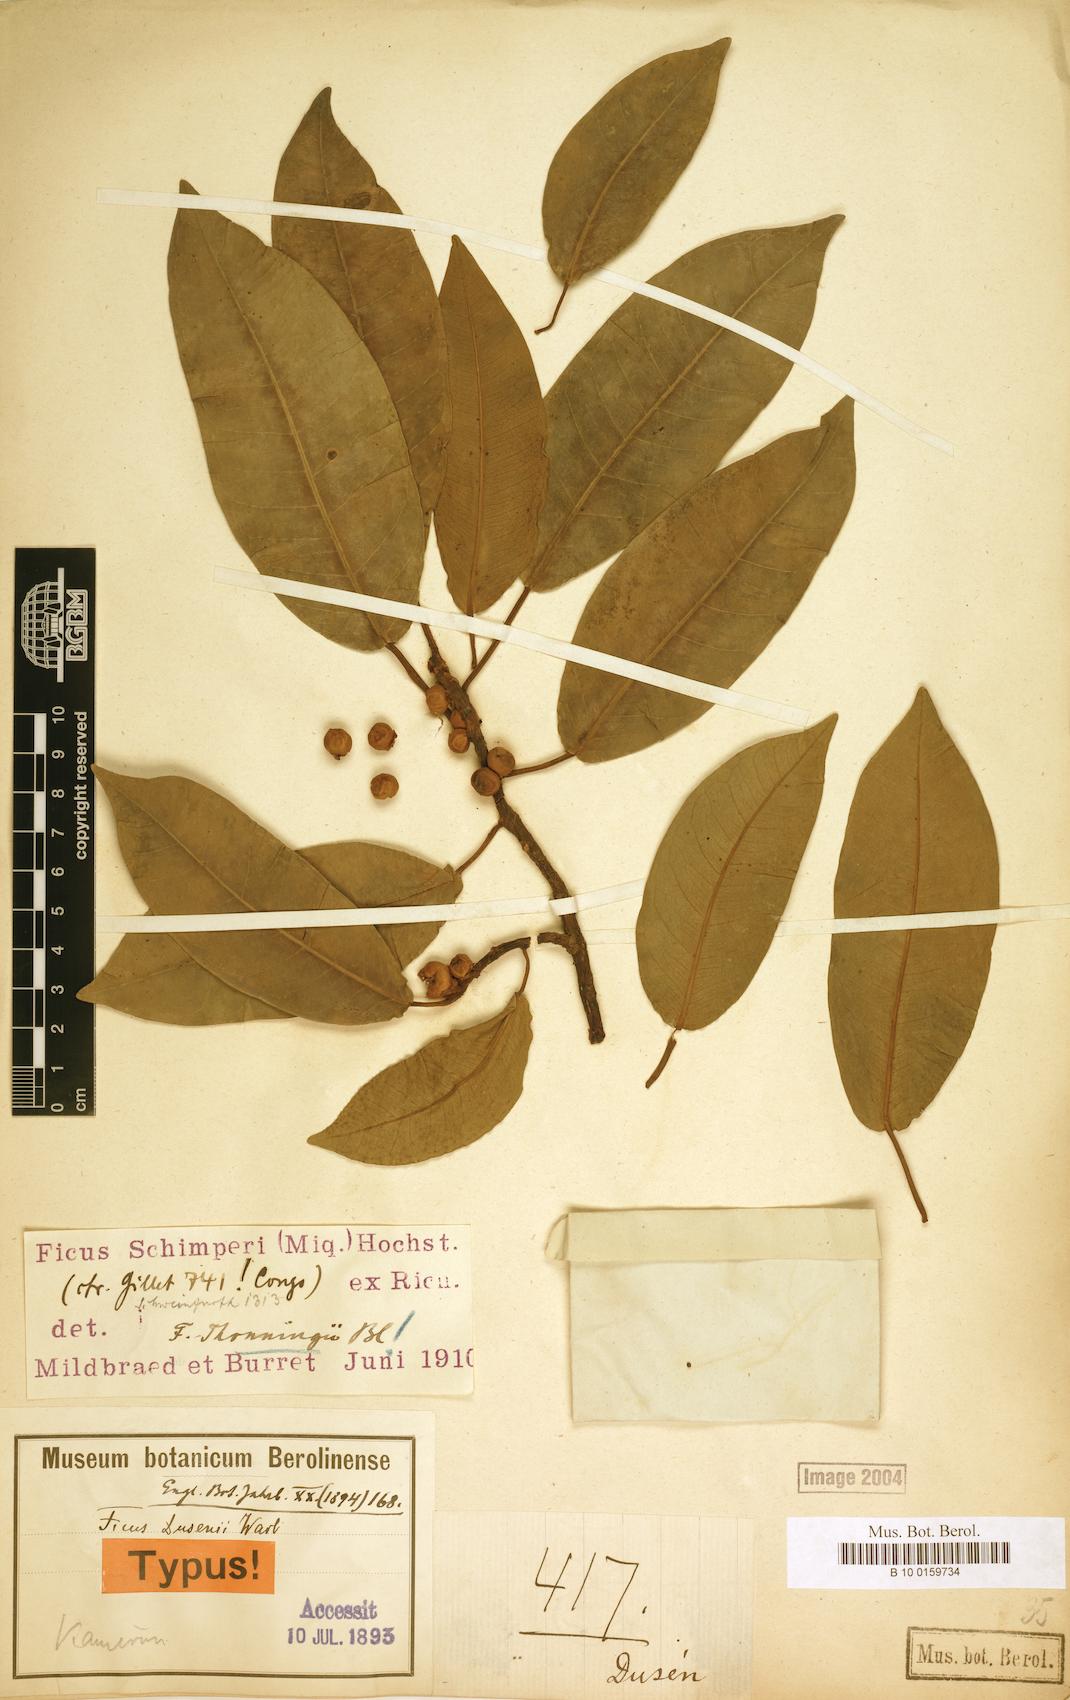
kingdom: Plantae
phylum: Tracheophyta
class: Magnoliopsida
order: Rosales
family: Moraceae
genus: Ficus
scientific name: Ficus thonningii
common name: Fig
